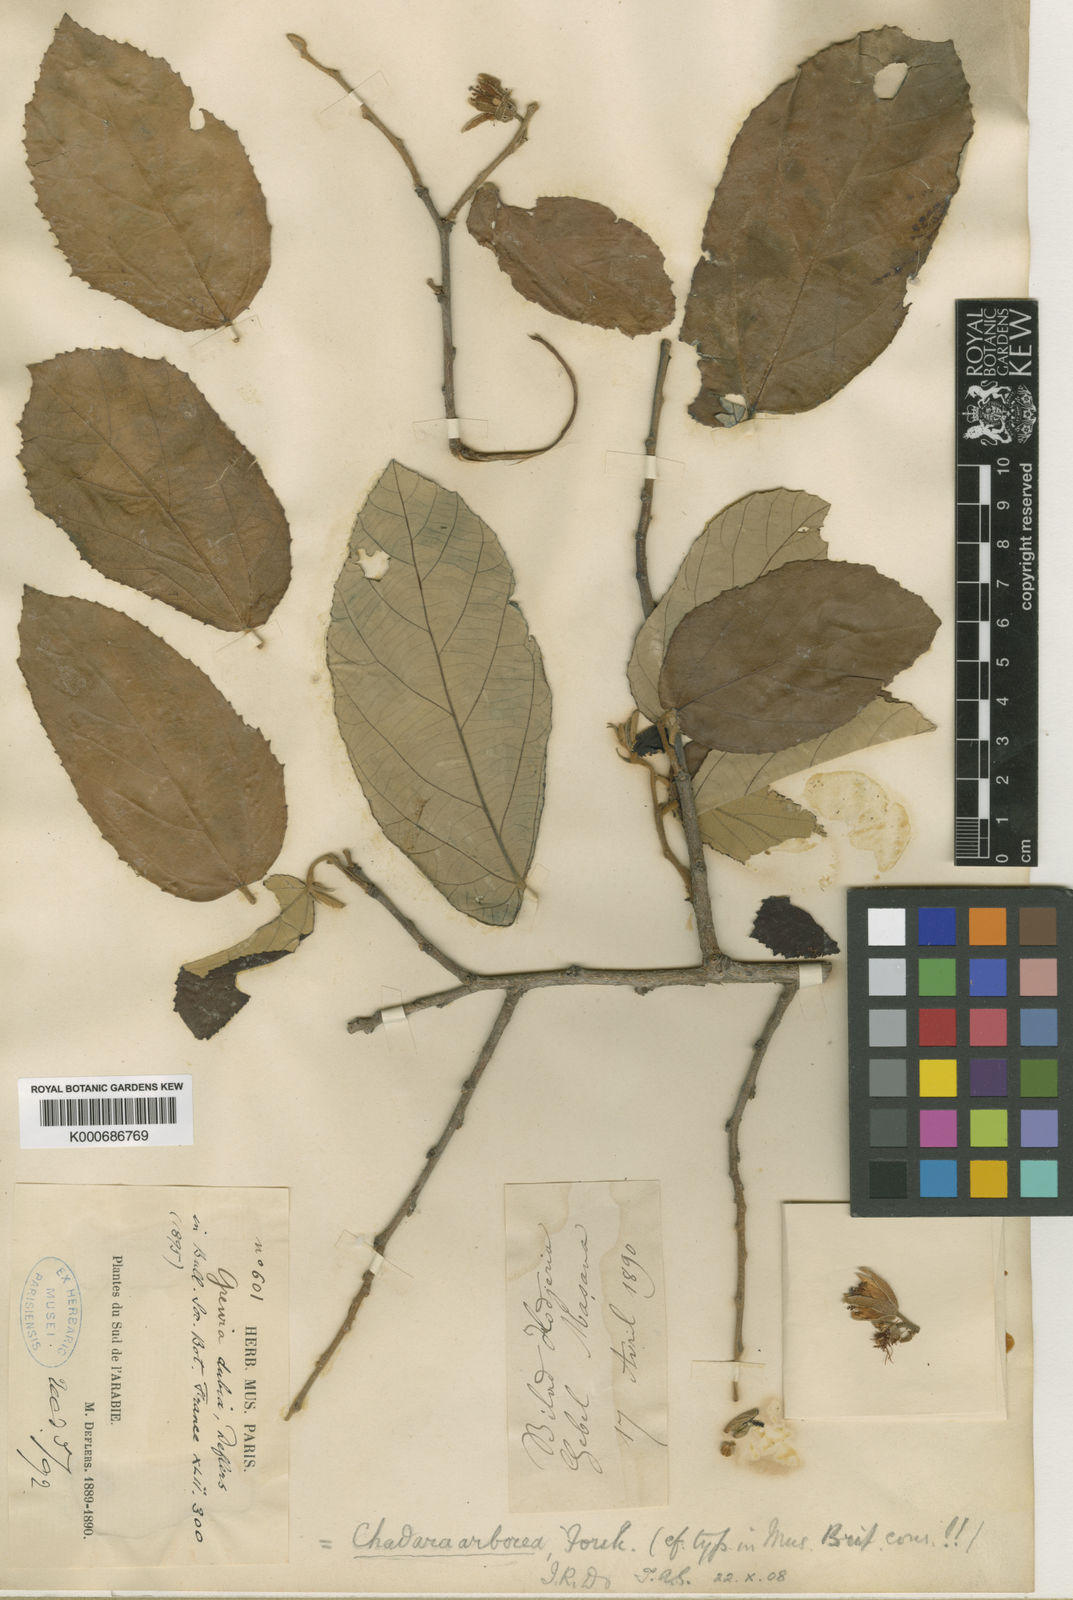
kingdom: Plantae
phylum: Tracheophyta
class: Magnoliopsida
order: Malvales
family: Malvaceae
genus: Grewia
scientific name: Grewia arborea
